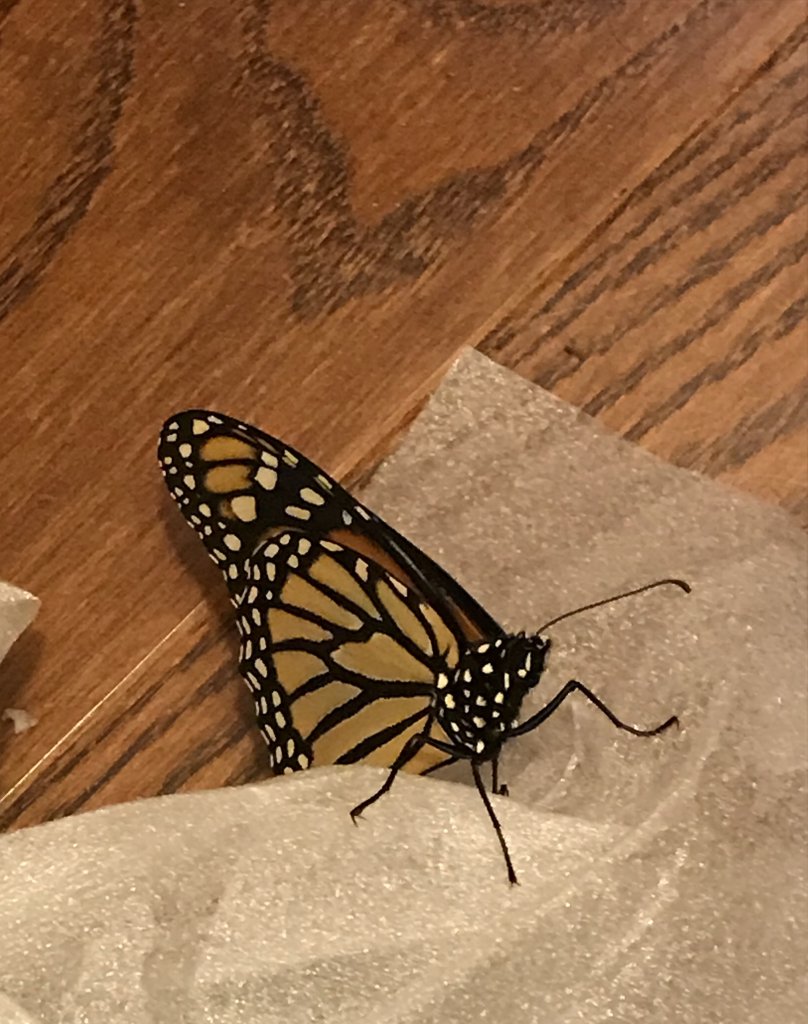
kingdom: Animalia
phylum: Arthropoda
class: Insecta
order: Lepidoptera
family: Nymphalidae
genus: Danaus
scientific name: Danaus plexippus
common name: Monarch
